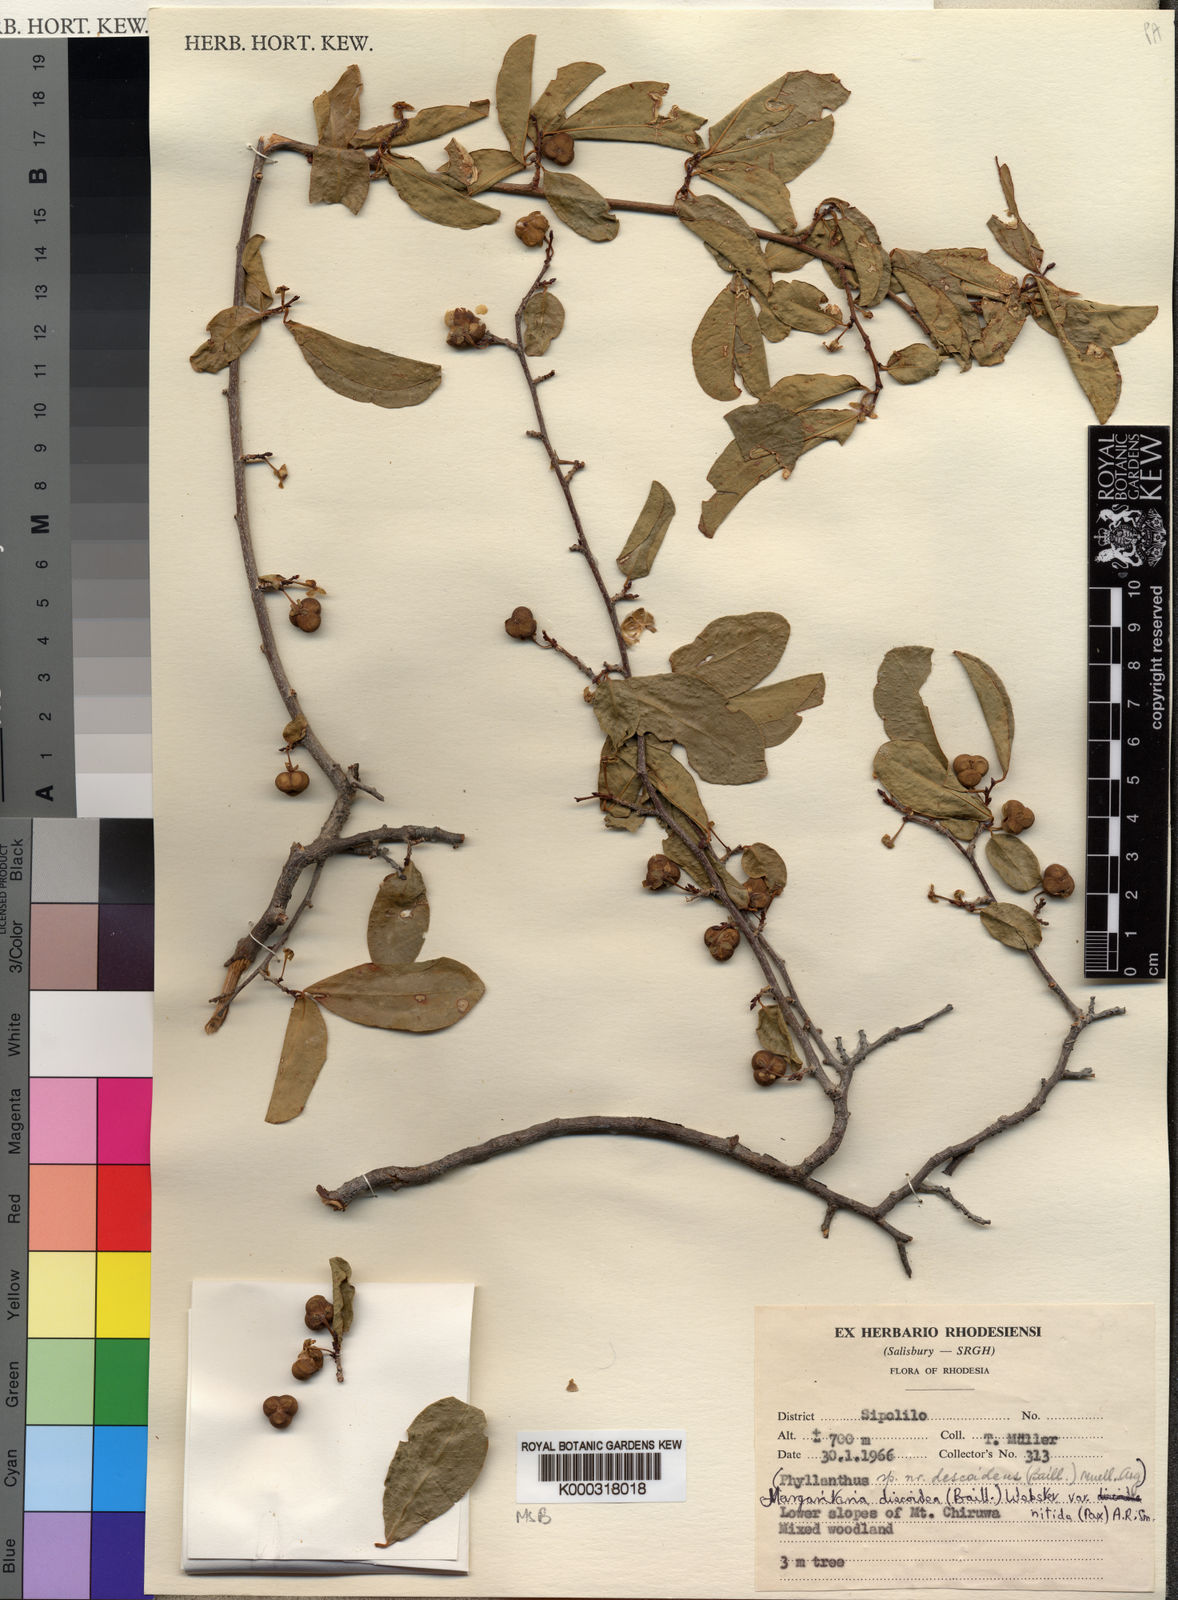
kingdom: Plantae
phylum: Tracheophyta
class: Magnoliopsida
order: Malpighiales
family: Phyllanthaceae
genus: Margaritaria
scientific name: Margaritaria discoidea
